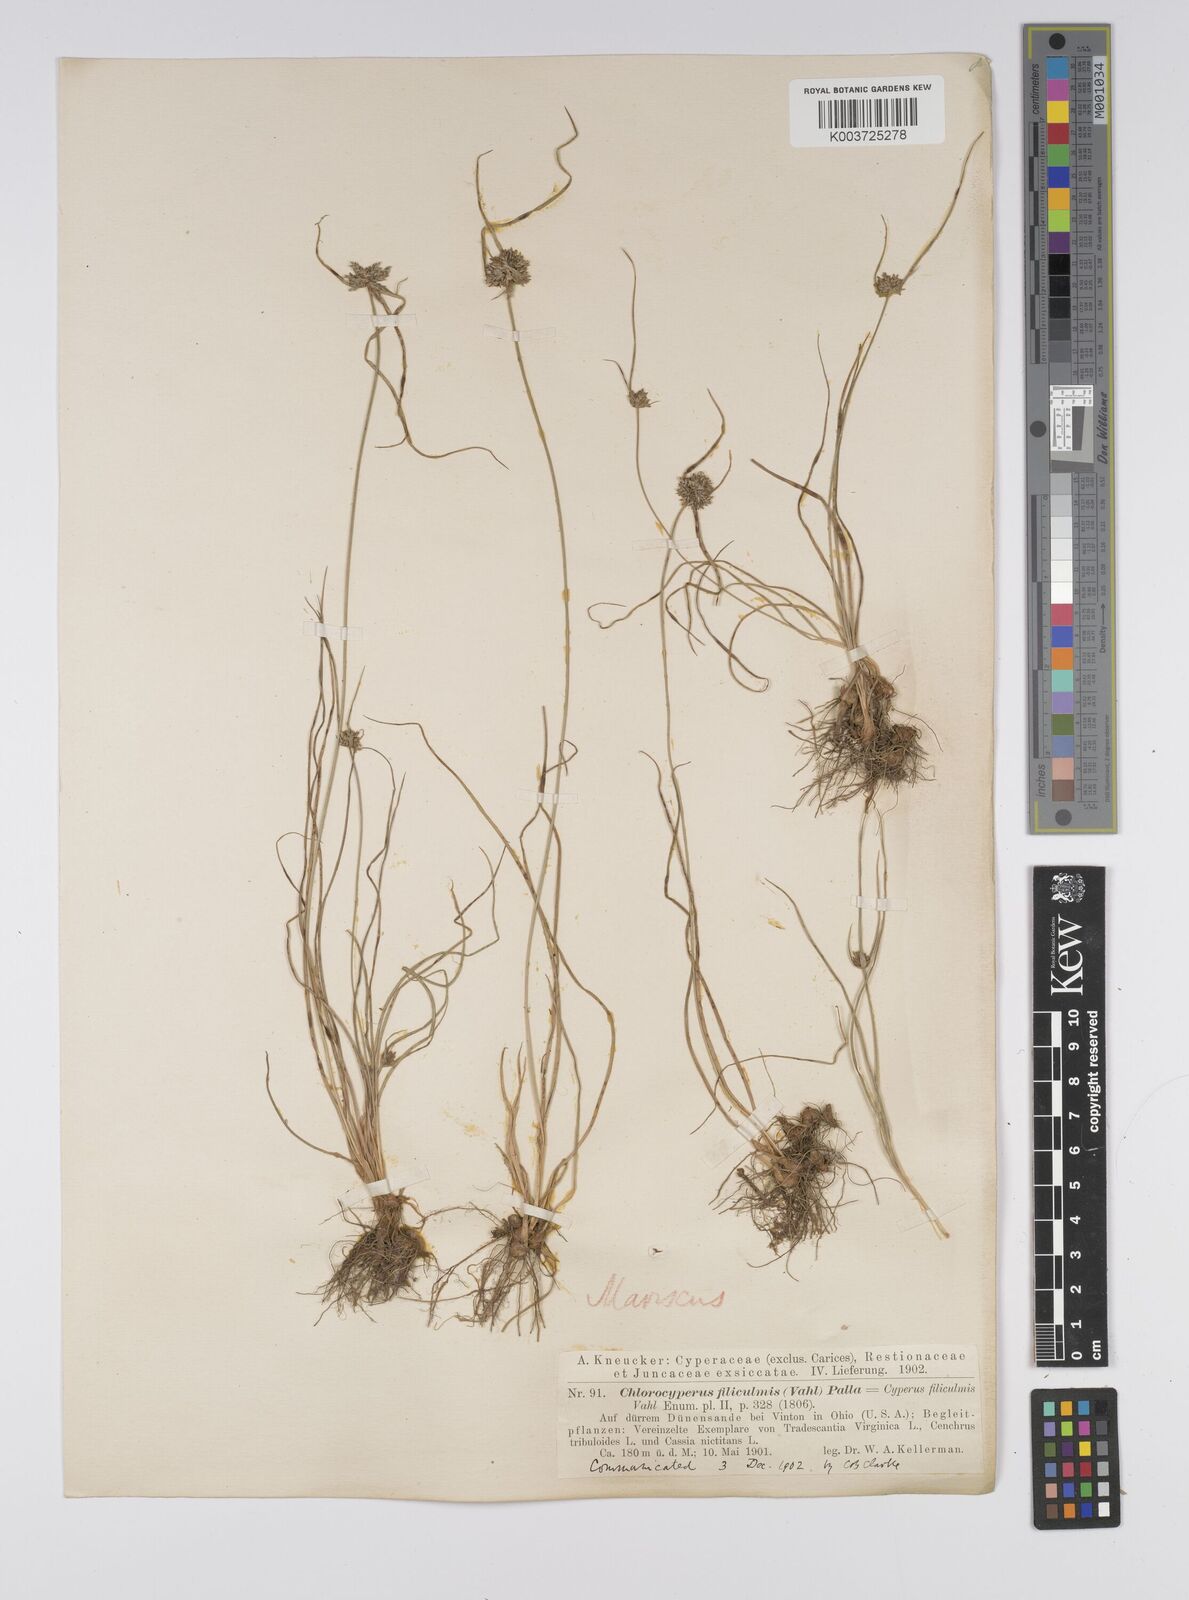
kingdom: Plantae
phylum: Tracheophyta
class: Liliopsida
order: Poales
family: Cyperaceae
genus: Cyperus
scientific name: Cyperus lupulinus
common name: Great plains flatsedge
